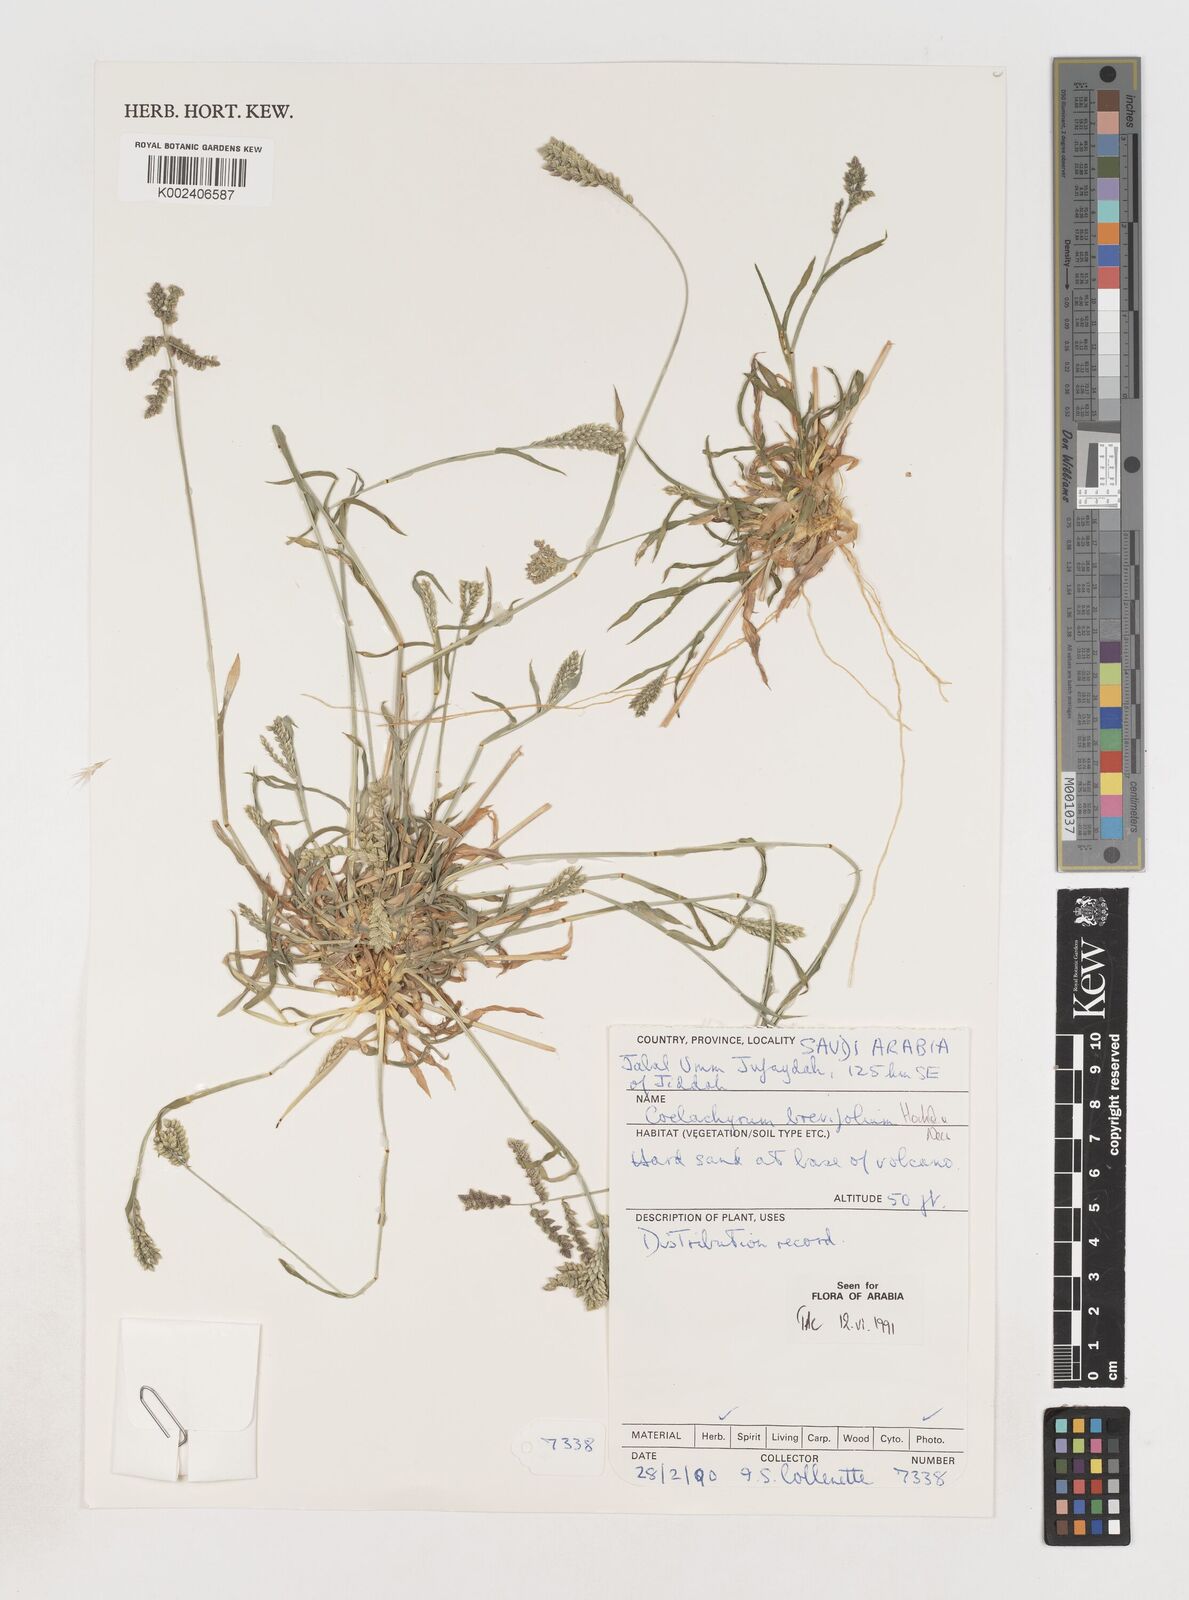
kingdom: Plantae
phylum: Tracheophyta
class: Liliopsida
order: Poales
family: Poaceae
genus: Coelachyrum
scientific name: Coelachyrum brevifolium
